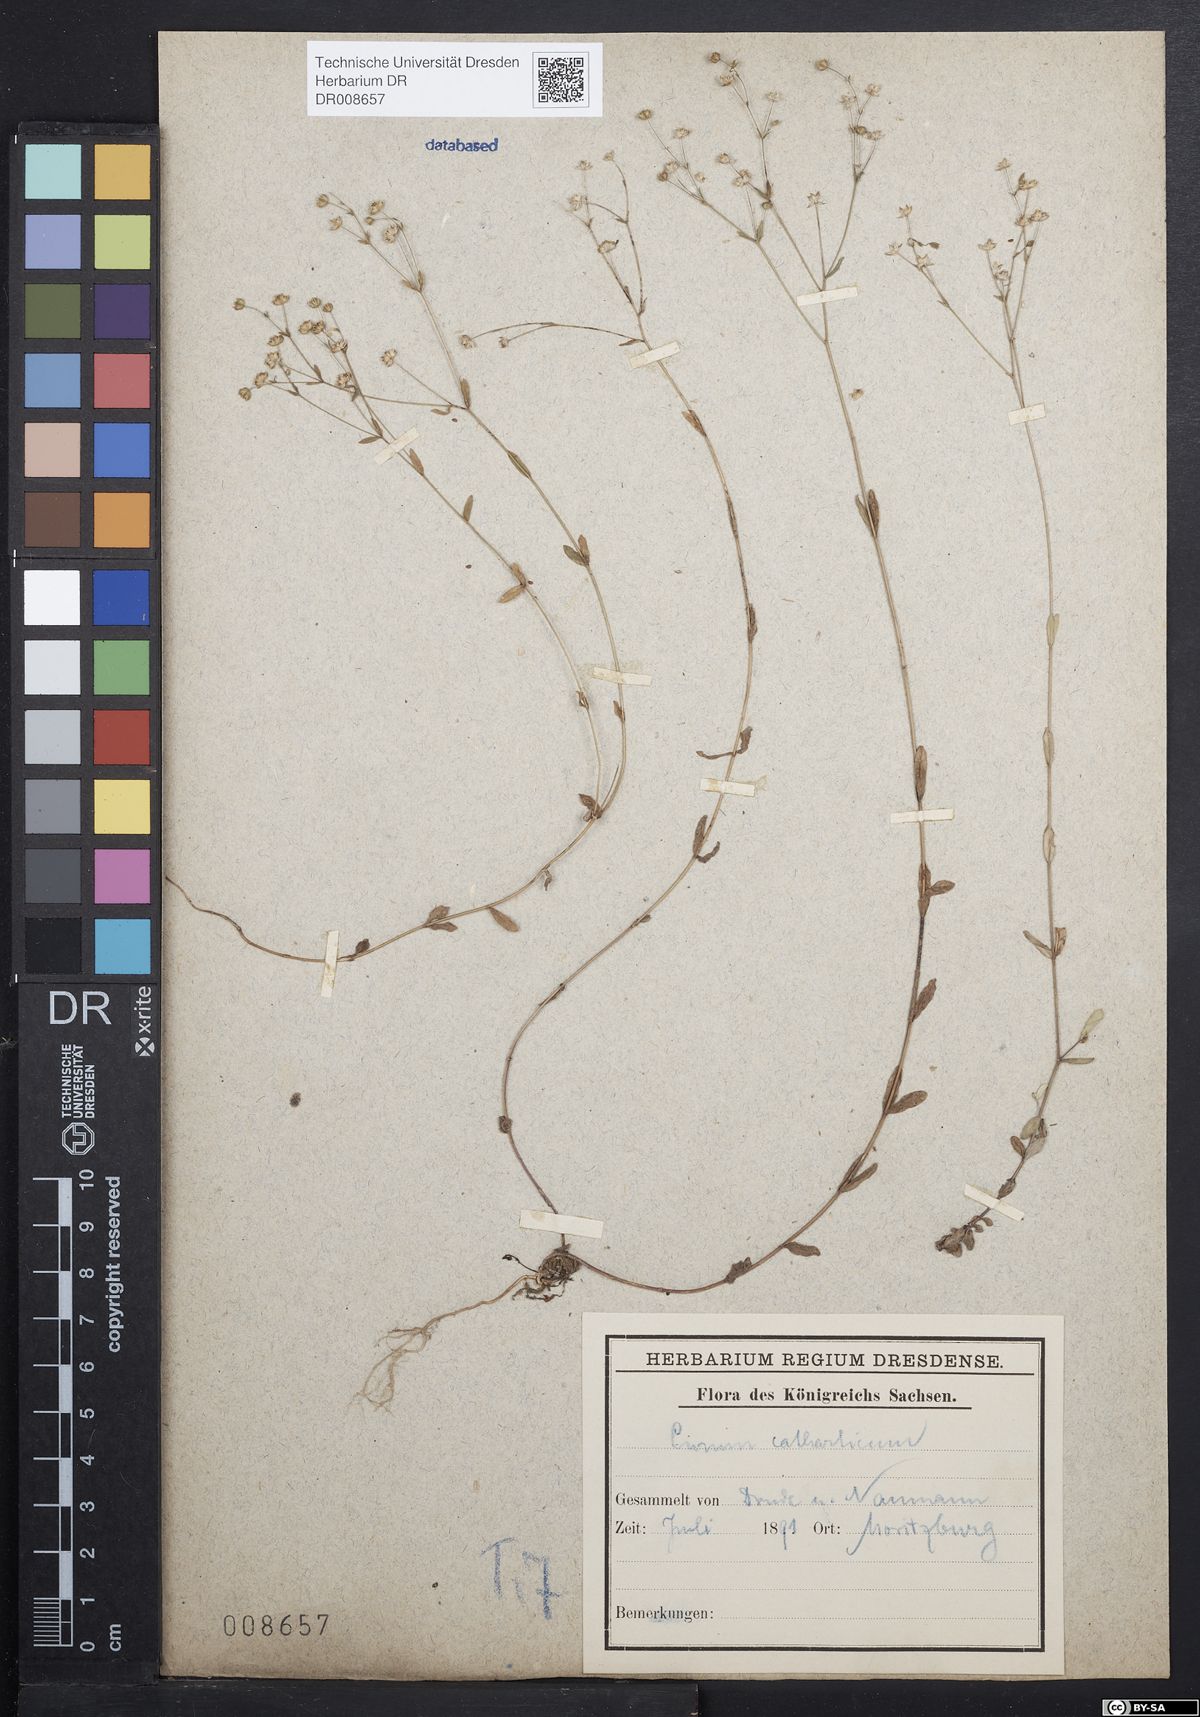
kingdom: Plantae
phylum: Tracheophyta
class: Magnoliopsida
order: Malpighiales
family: Linaceae
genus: Linum
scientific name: Linum catharticum
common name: Fairy flax
